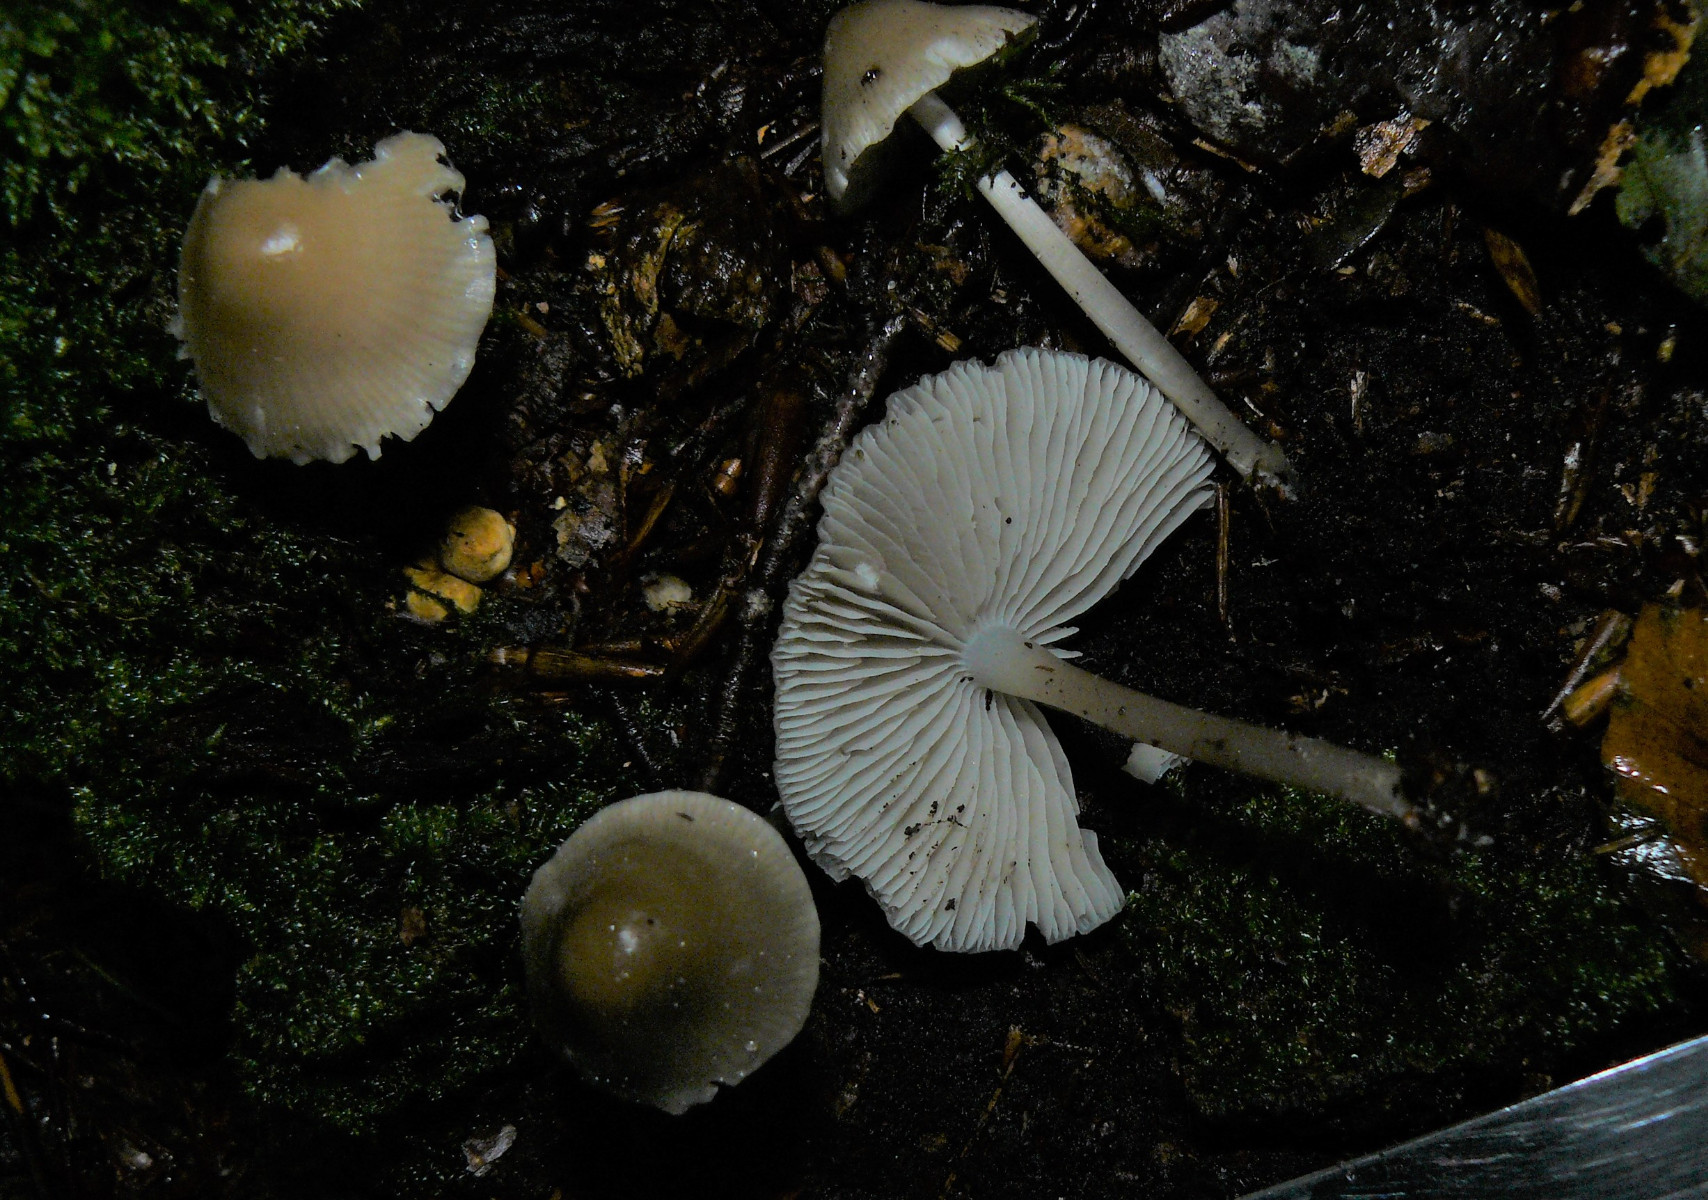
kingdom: Fungi
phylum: Basidiomycota
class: Agaricomycetes
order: Agaricales
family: Mycenaceae
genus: Mycena
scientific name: Mycena galericulata
